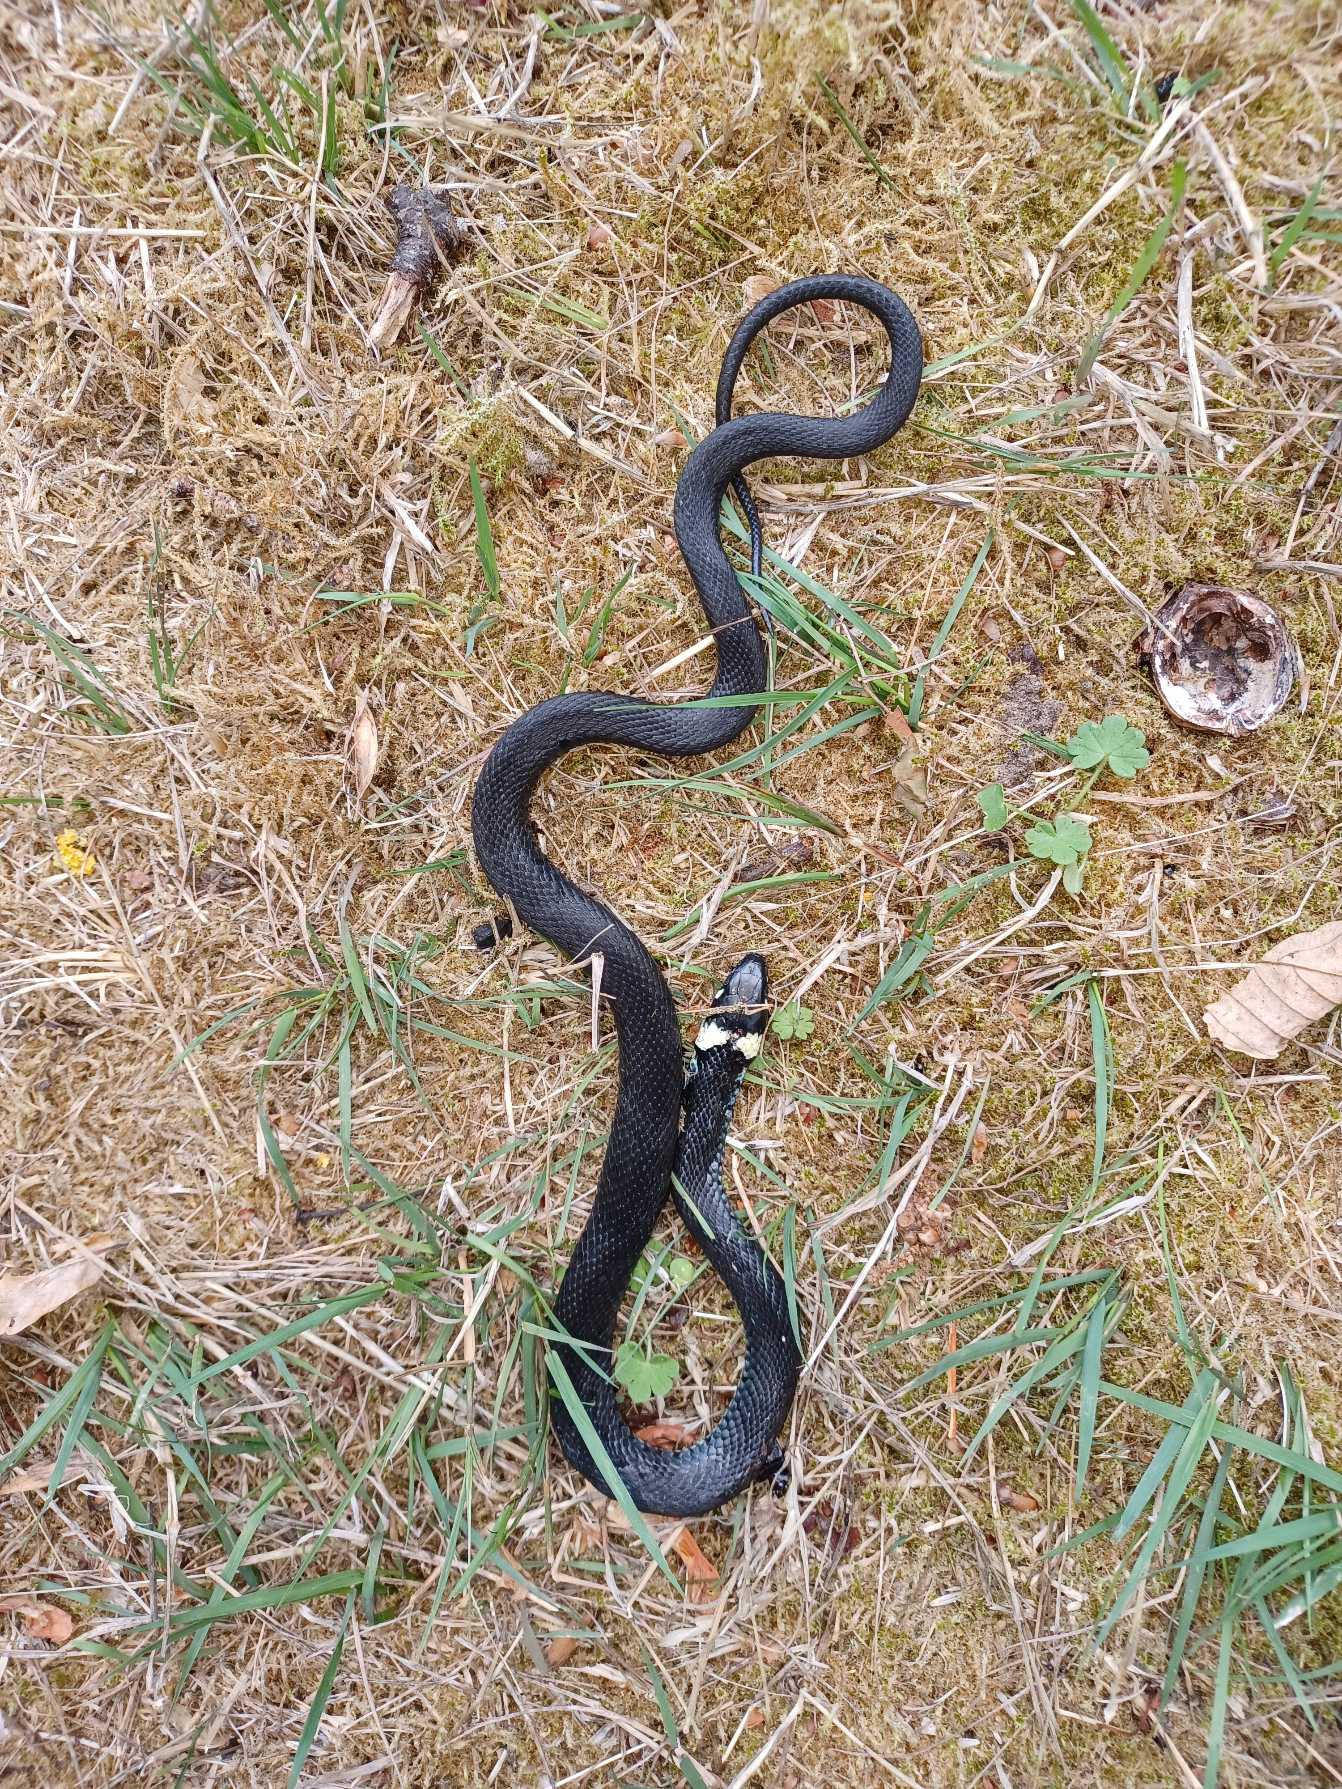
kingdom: Animalia
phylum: Chordata
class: Squamata
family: Colubridae
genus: Natrix
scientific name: Natrix natrix
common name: Snog
